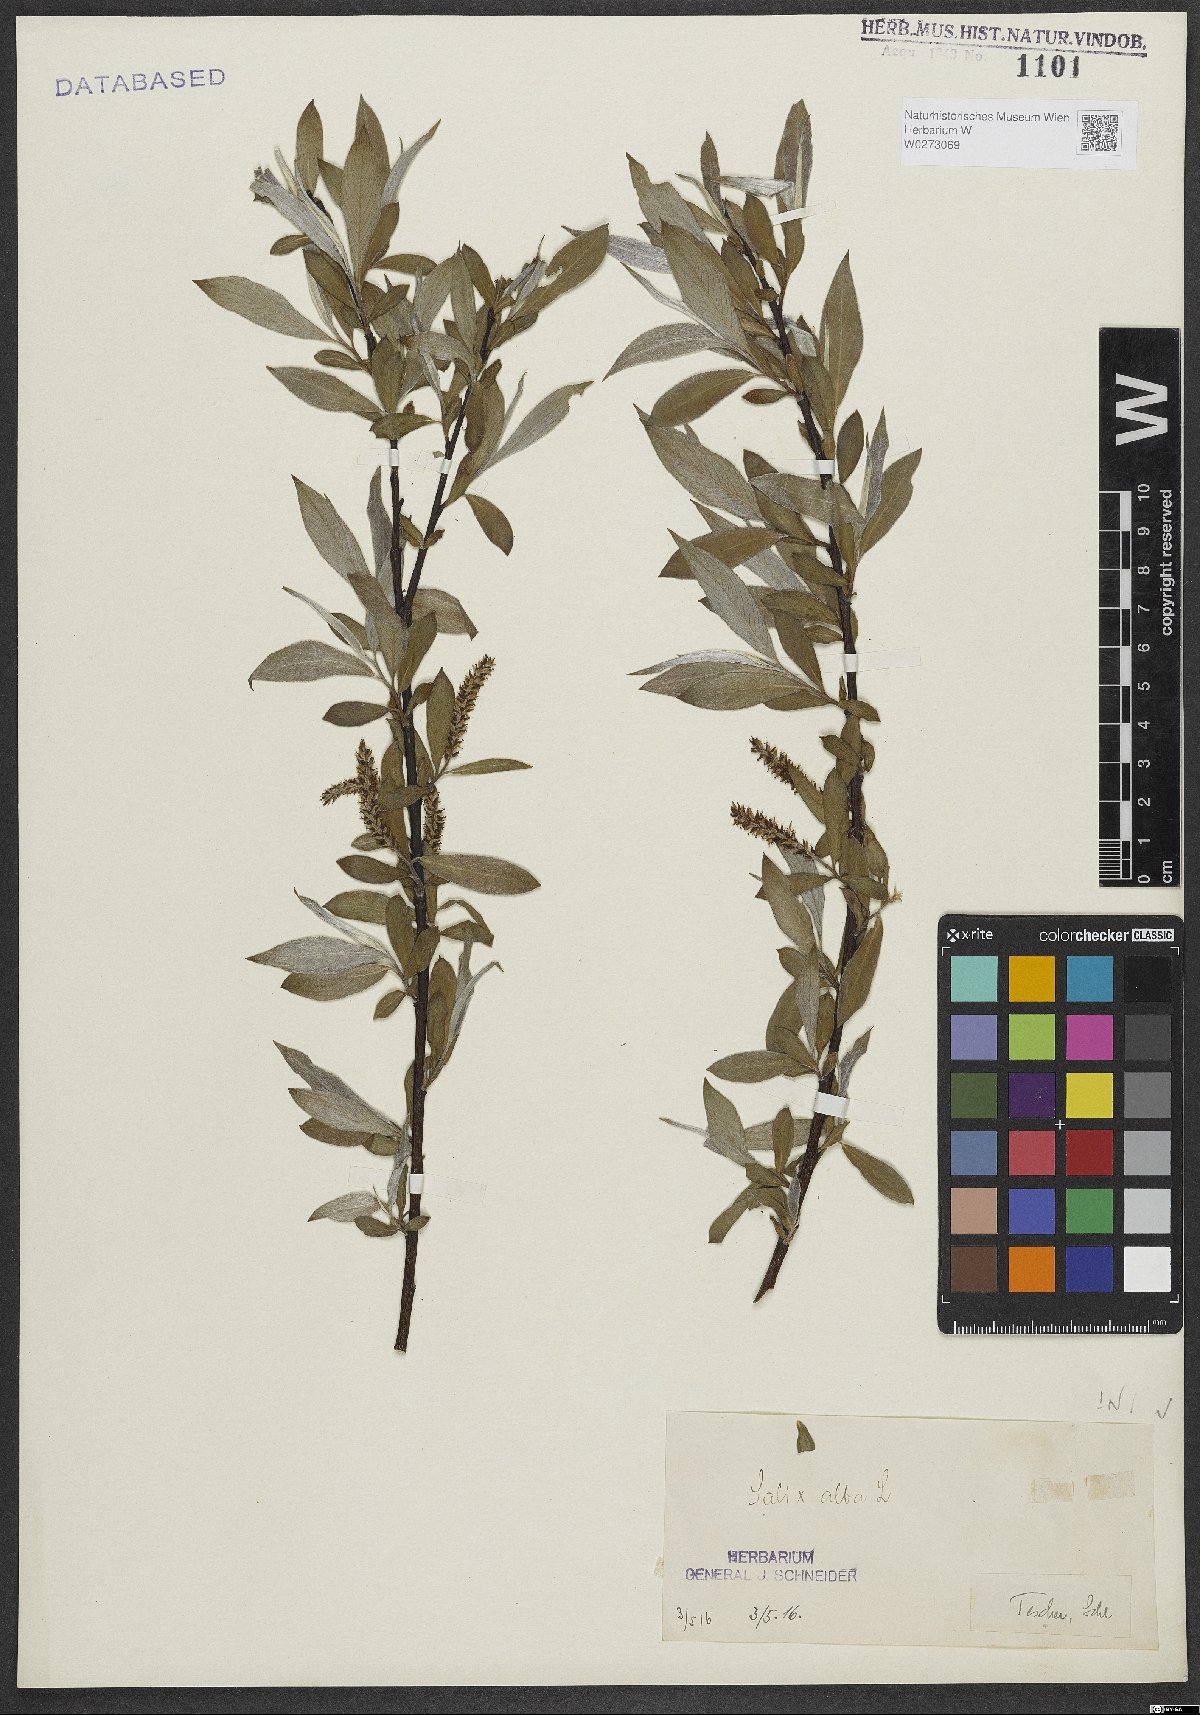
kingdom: Plantae
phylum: Tracheophyta
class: Magnoliopsida
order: Malpighiales
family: Salicaceae
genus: Salix
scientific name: Salix alba
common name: White willow
